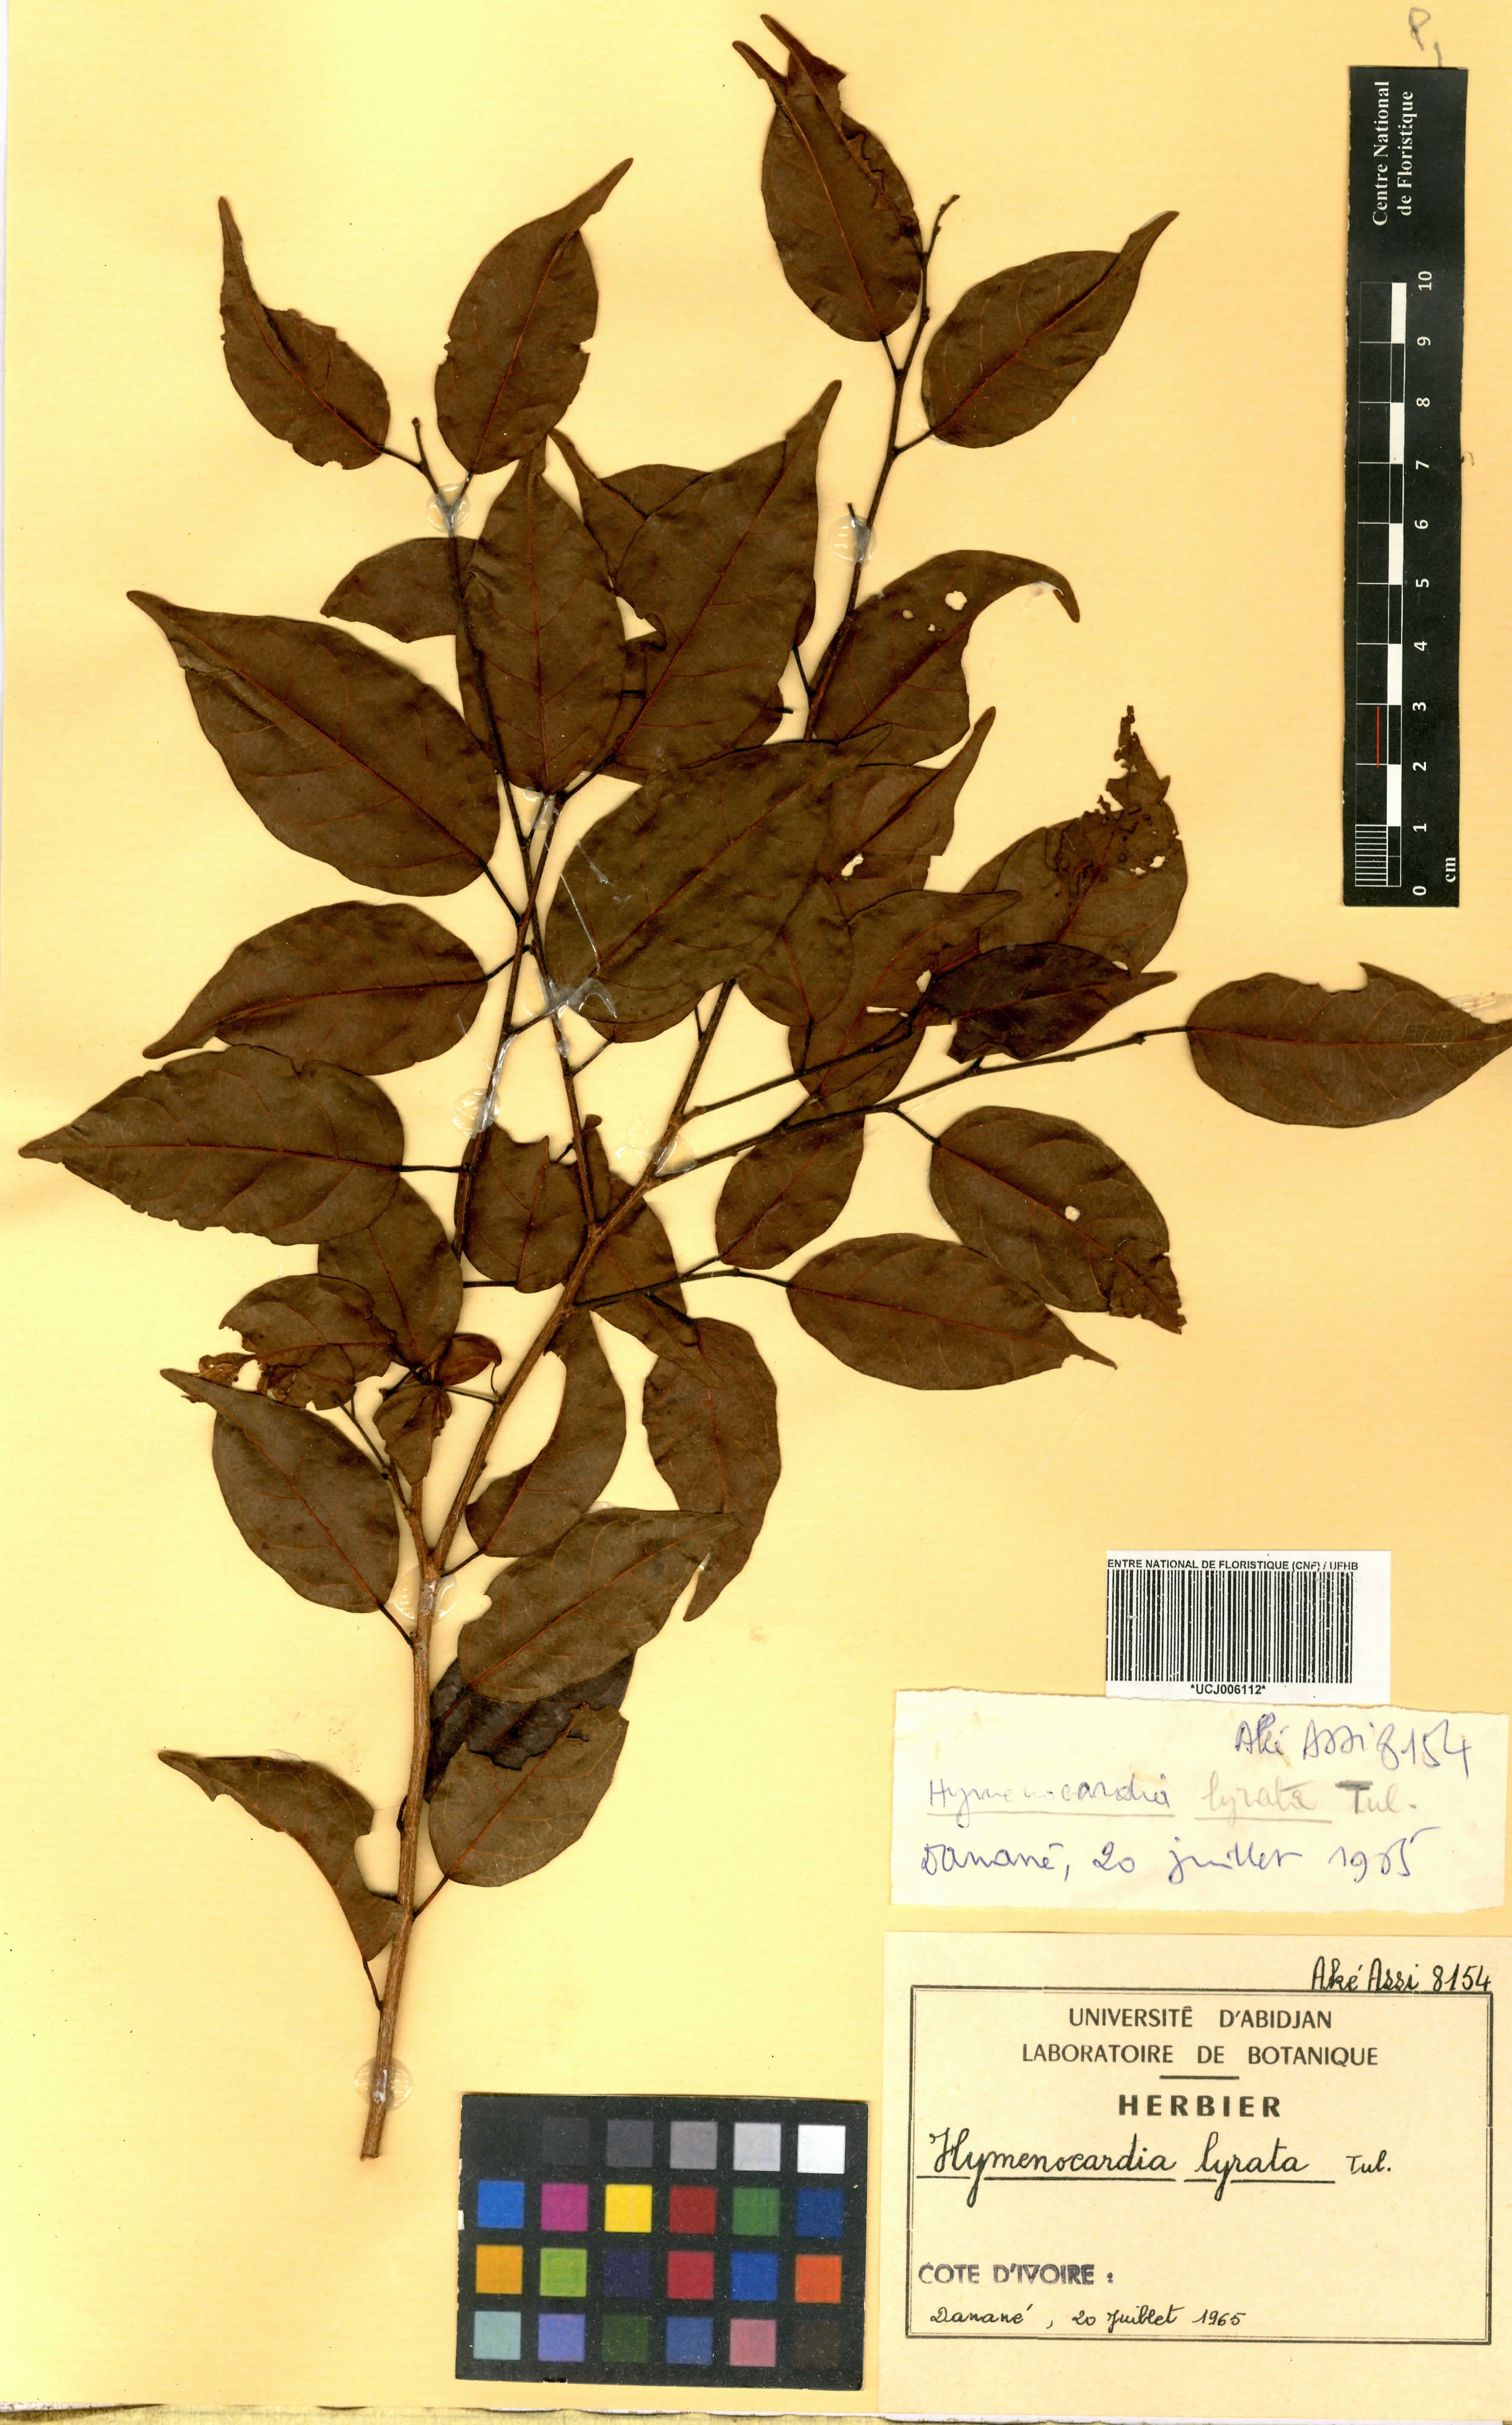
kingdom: Plantae
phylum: Tracheophyta
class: Magnoliopsida
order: Malpighiales
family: Phyllanthaceae
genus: Hymenocardia
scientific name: Hymenocardia lyrata
